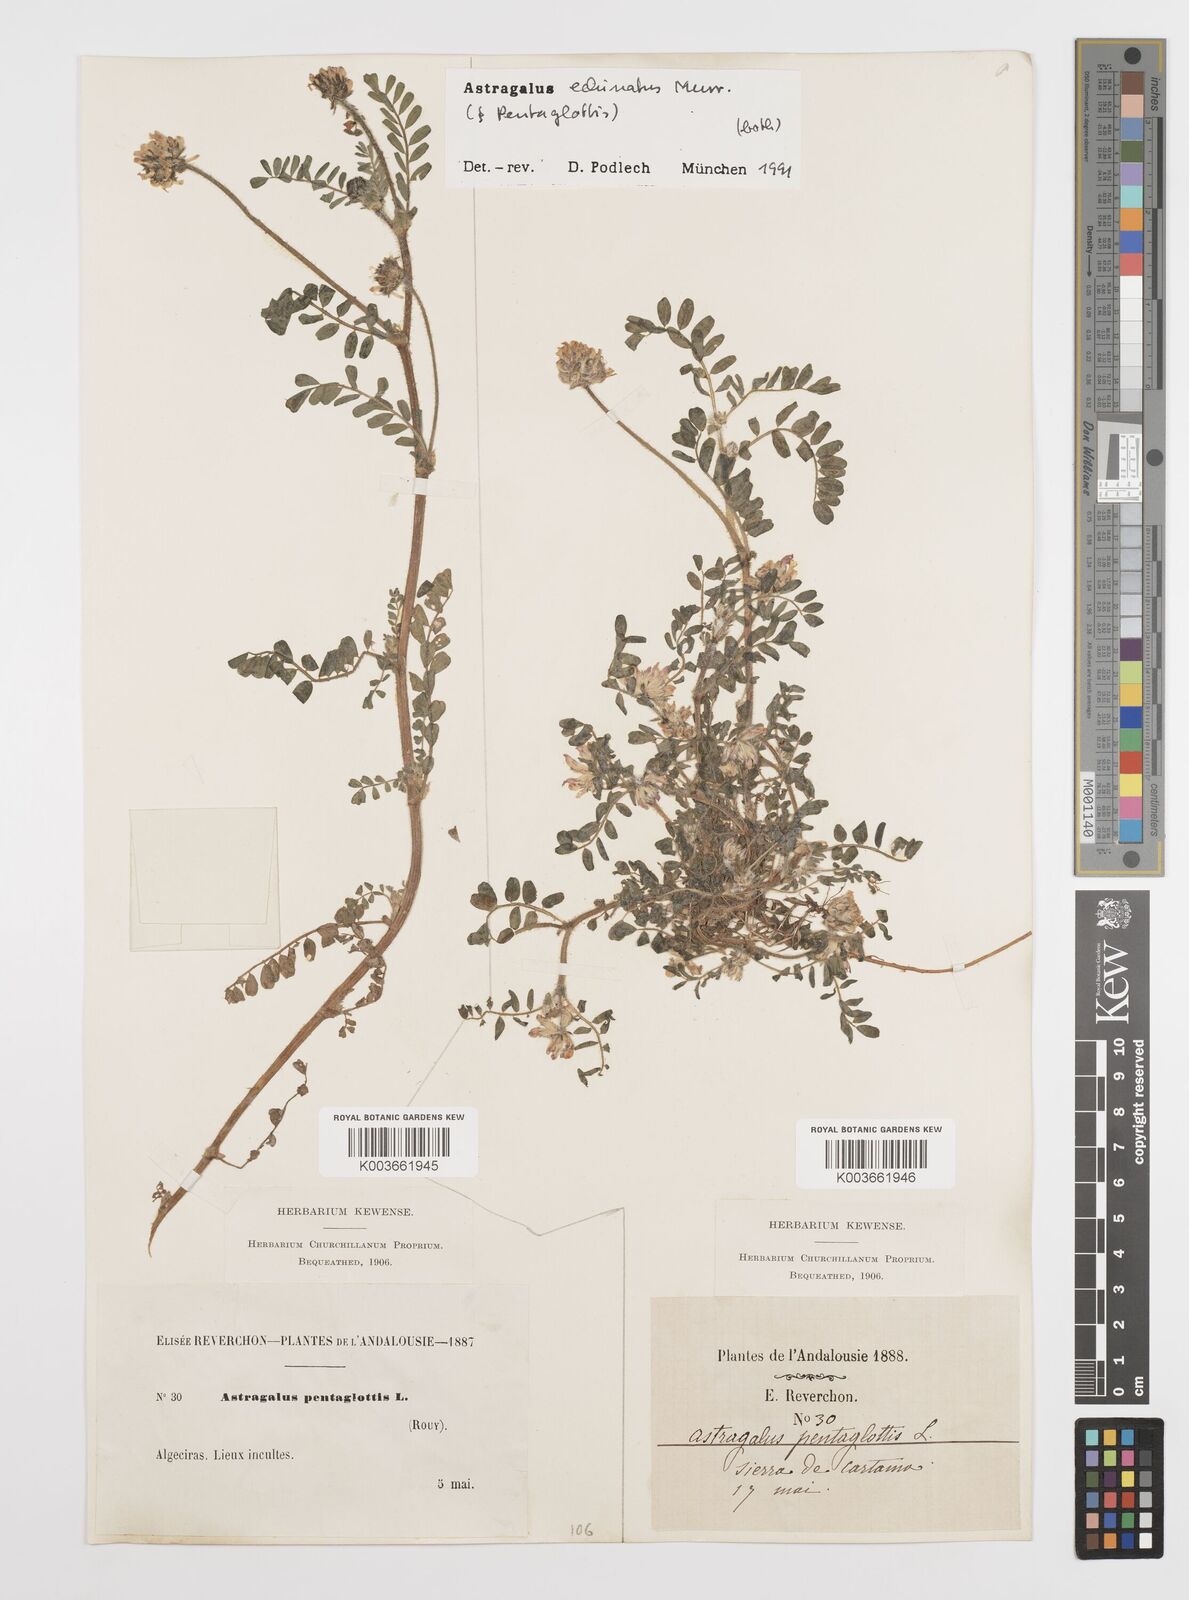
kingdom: Plantae
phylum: Tracheophyta
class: Magnoliopsida
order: Fabales
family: Fabaceae
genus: Astragalus
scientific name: Astragalus echinatus
